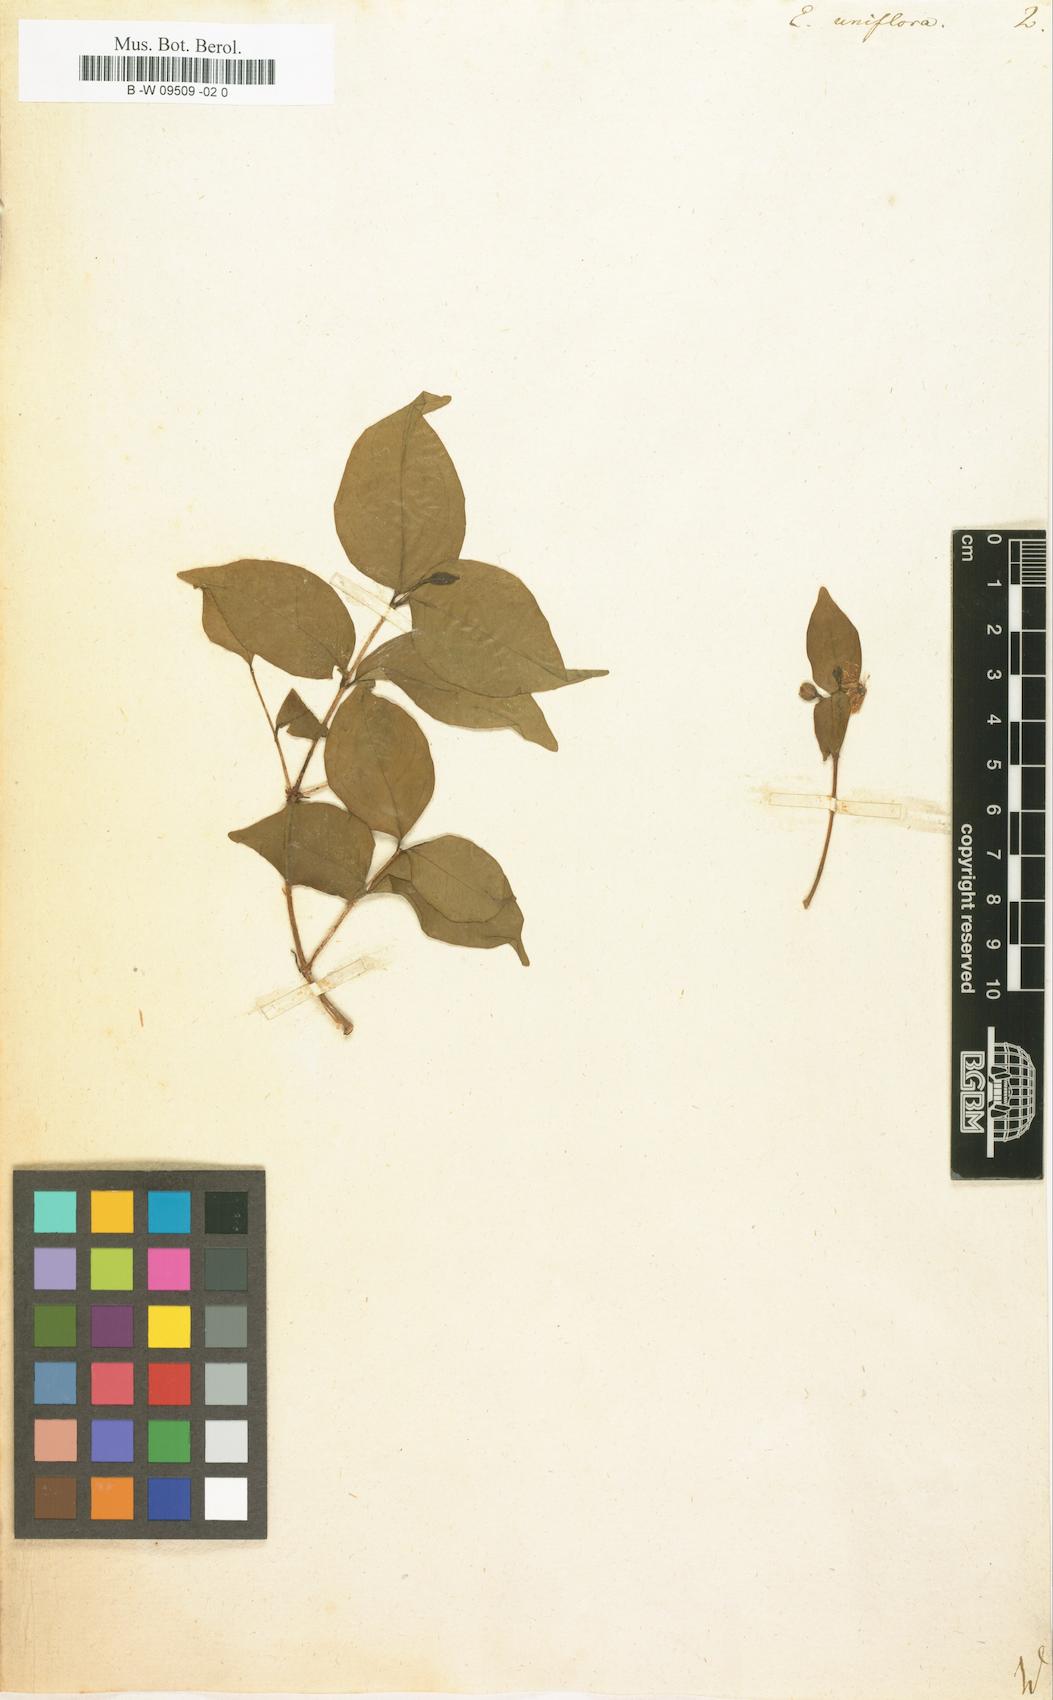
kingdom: Plantae
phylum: Tracheophyta
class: Magnoliopsida
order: Myrtales
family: Myrtaceae
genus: Eugenia
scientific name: Eugenia uniflora
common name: Surinam cherry
